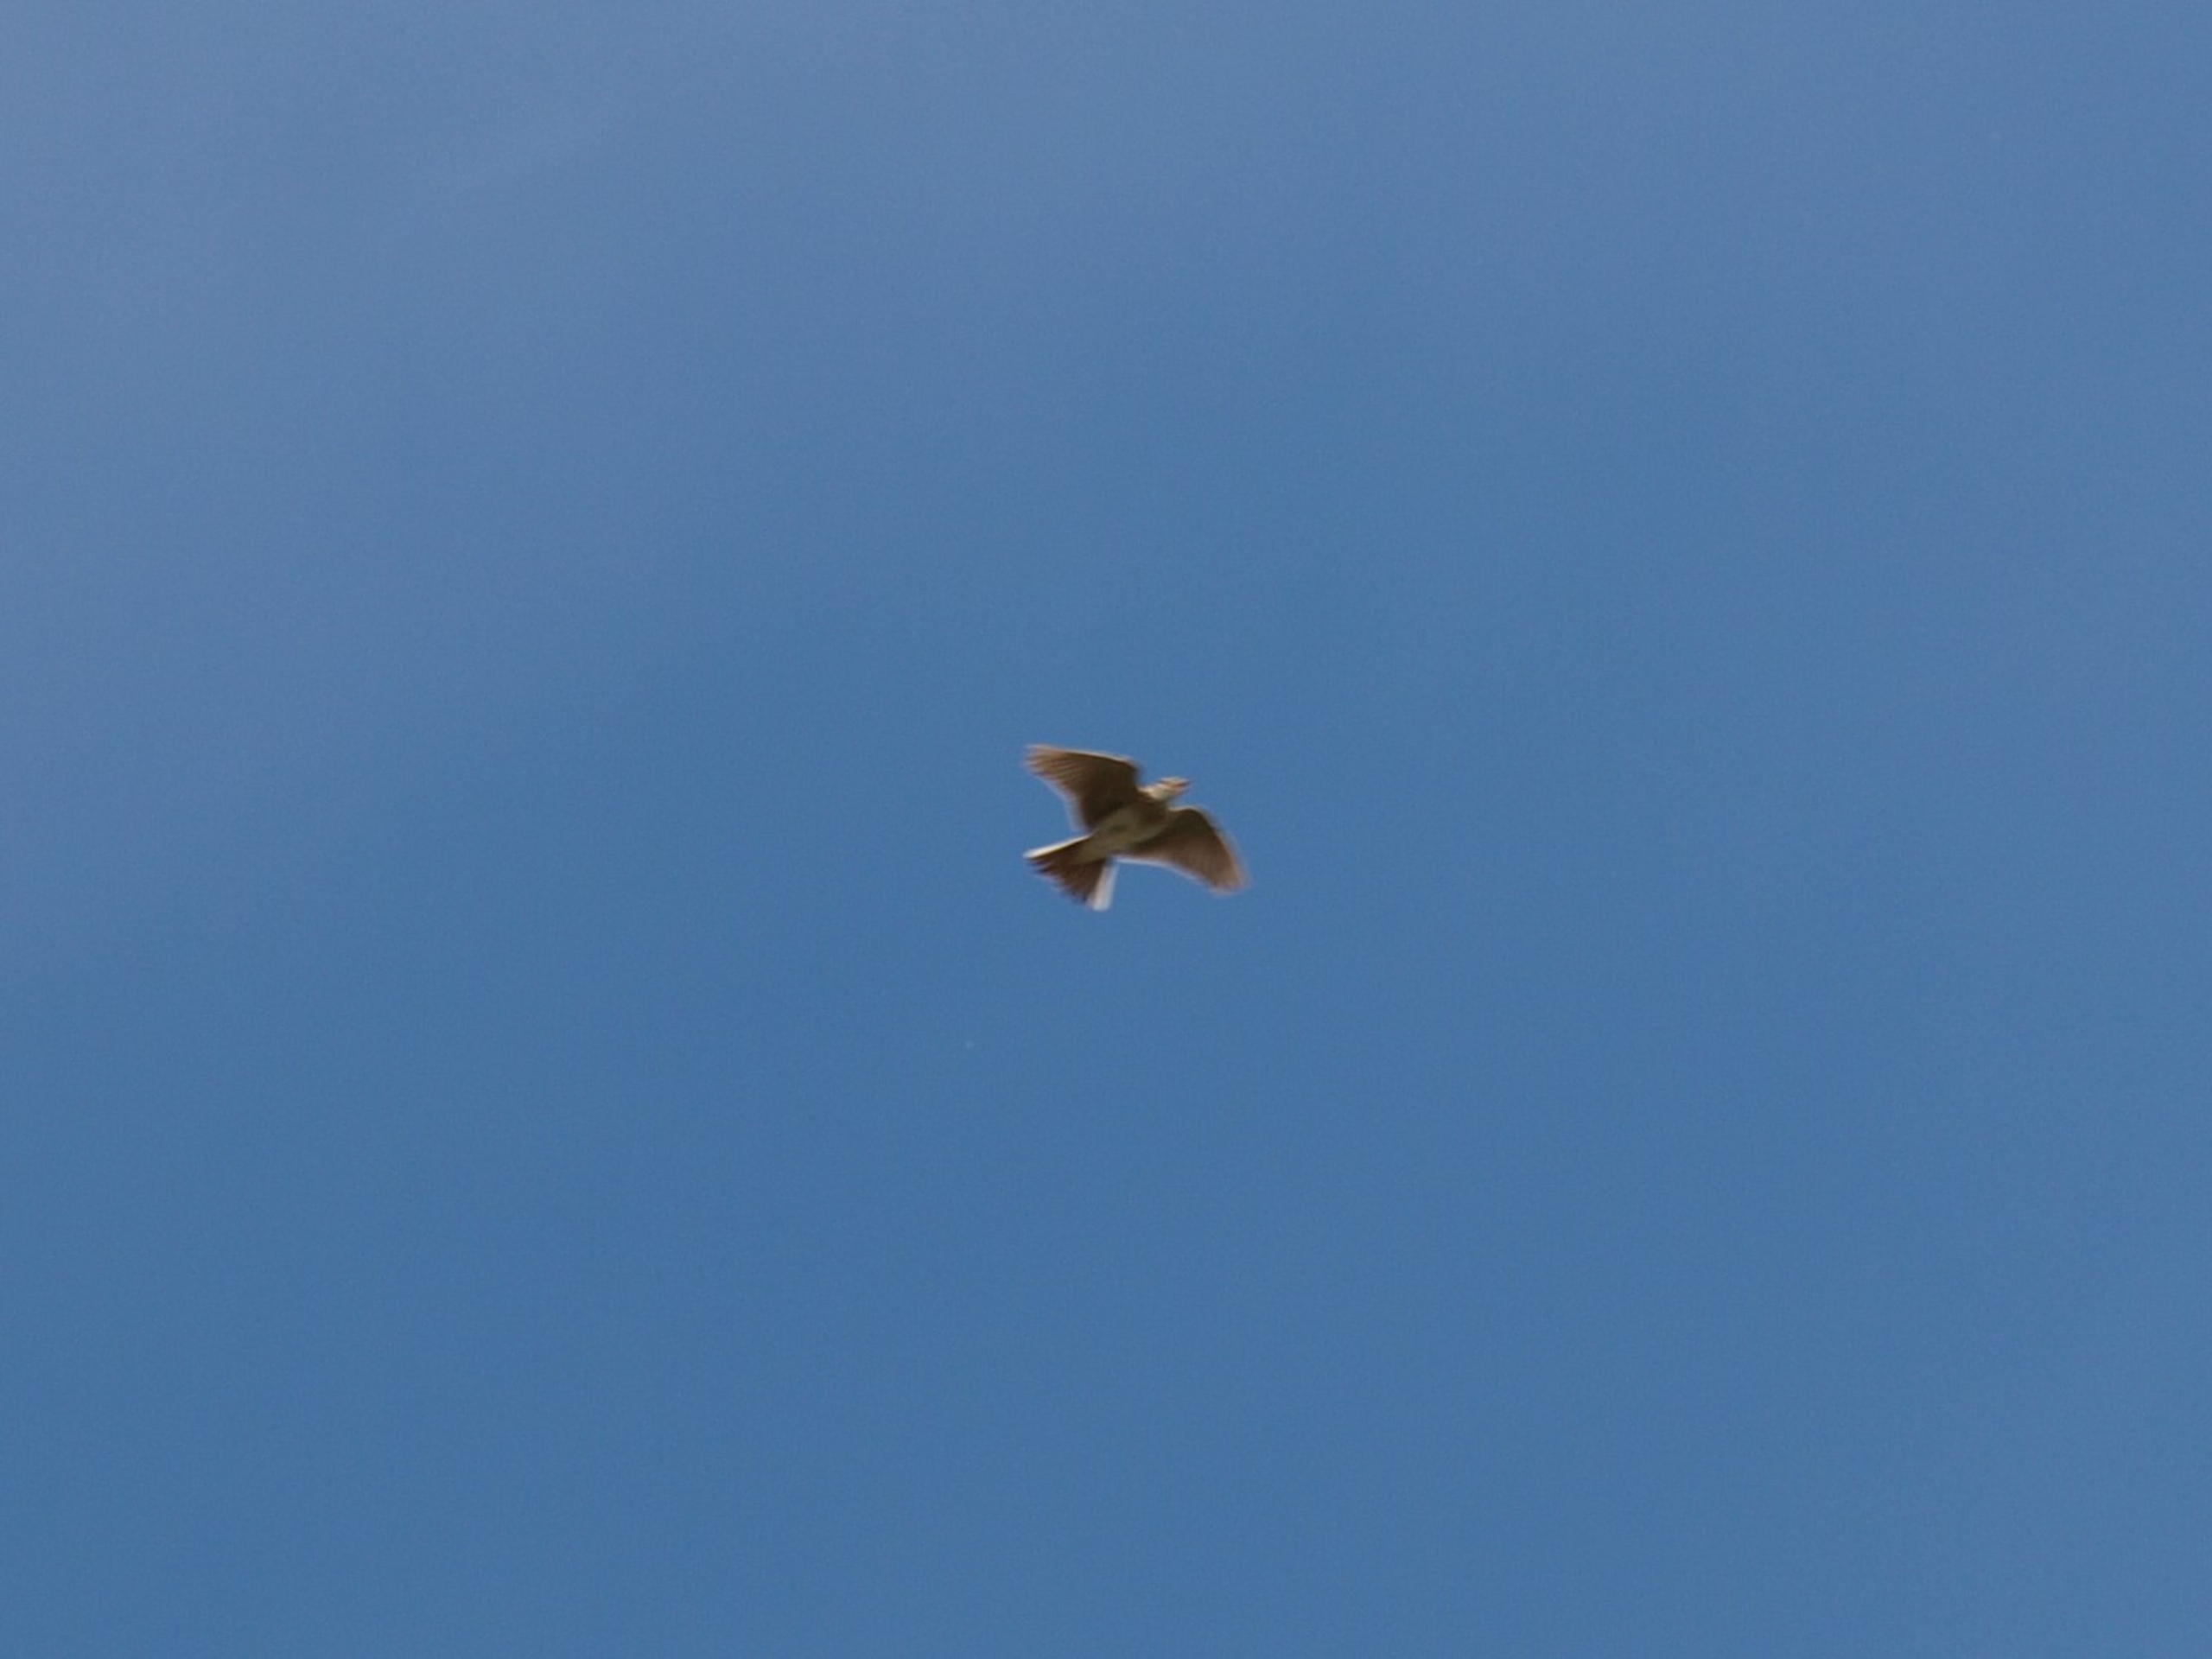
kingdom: Animalia
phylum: Chordata
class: Aves
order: Passeriformes
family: Alaudidae
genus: Alauda
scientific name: Alauda arvensis
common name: Sanglærke
